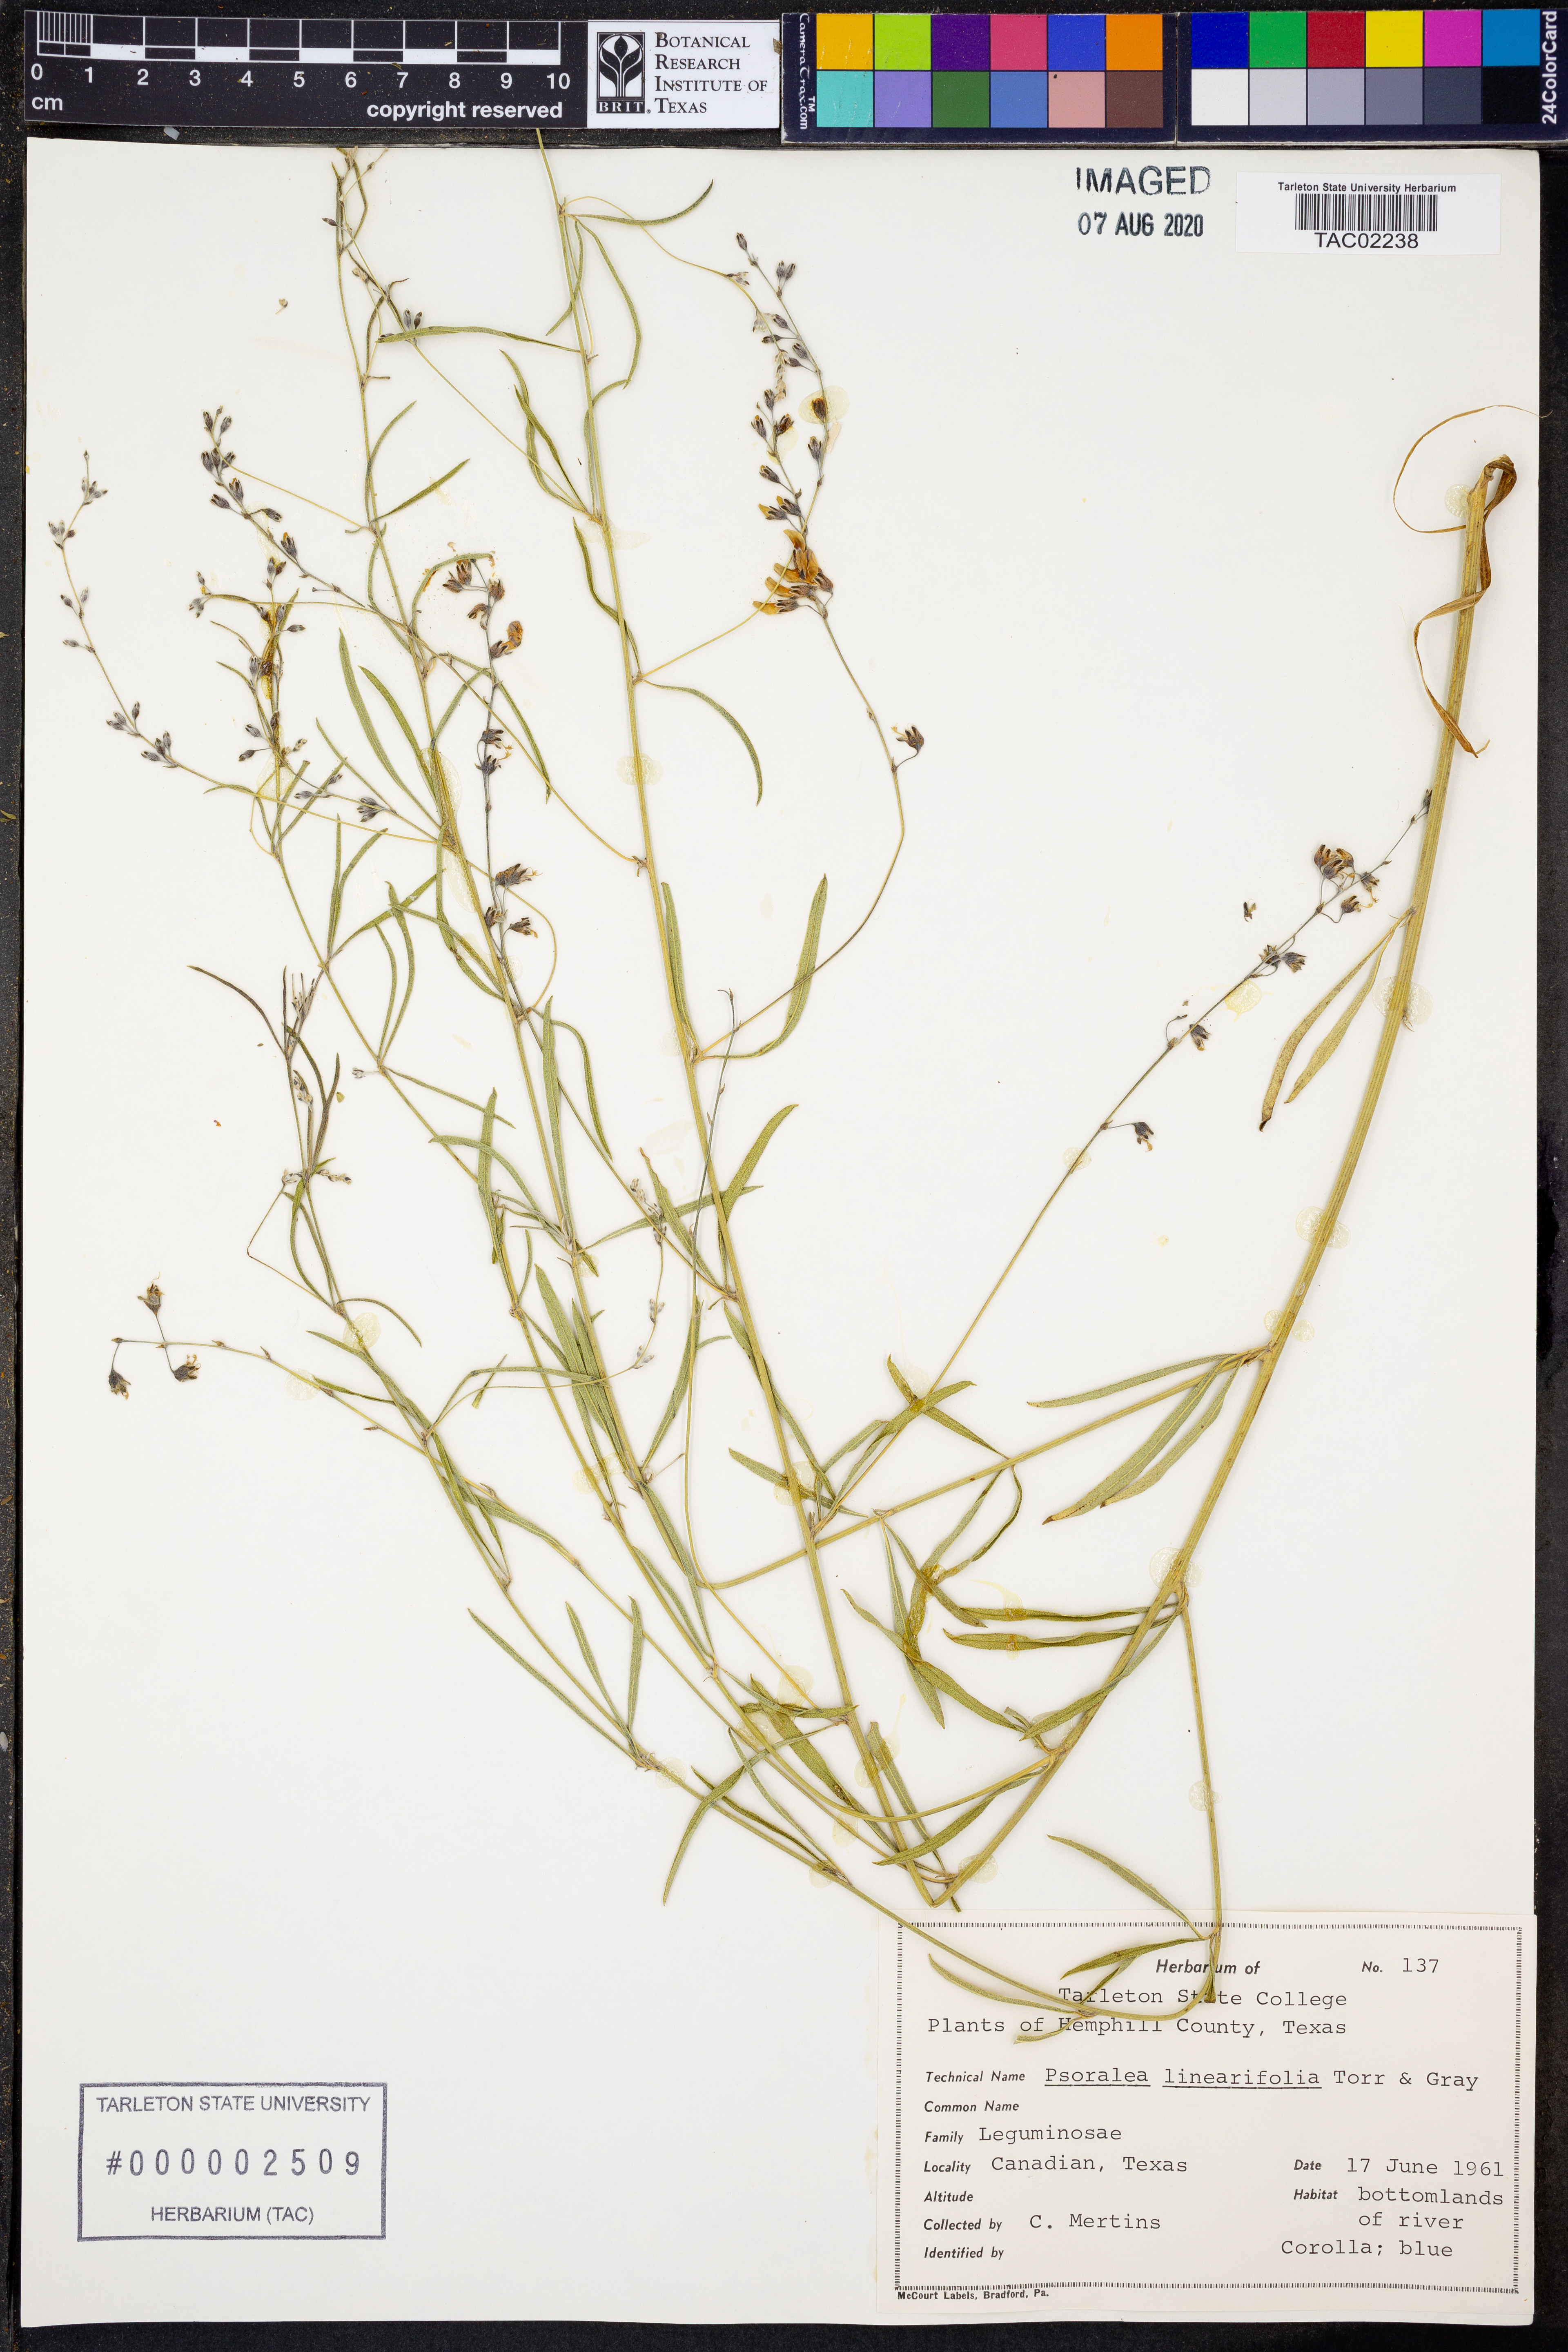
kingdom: Plantae
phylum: Tracheophyta
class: Magnoliopsida
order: Fabales
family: Fabaceae
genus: Pediomelum
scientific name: Pediomelum linearifolium
